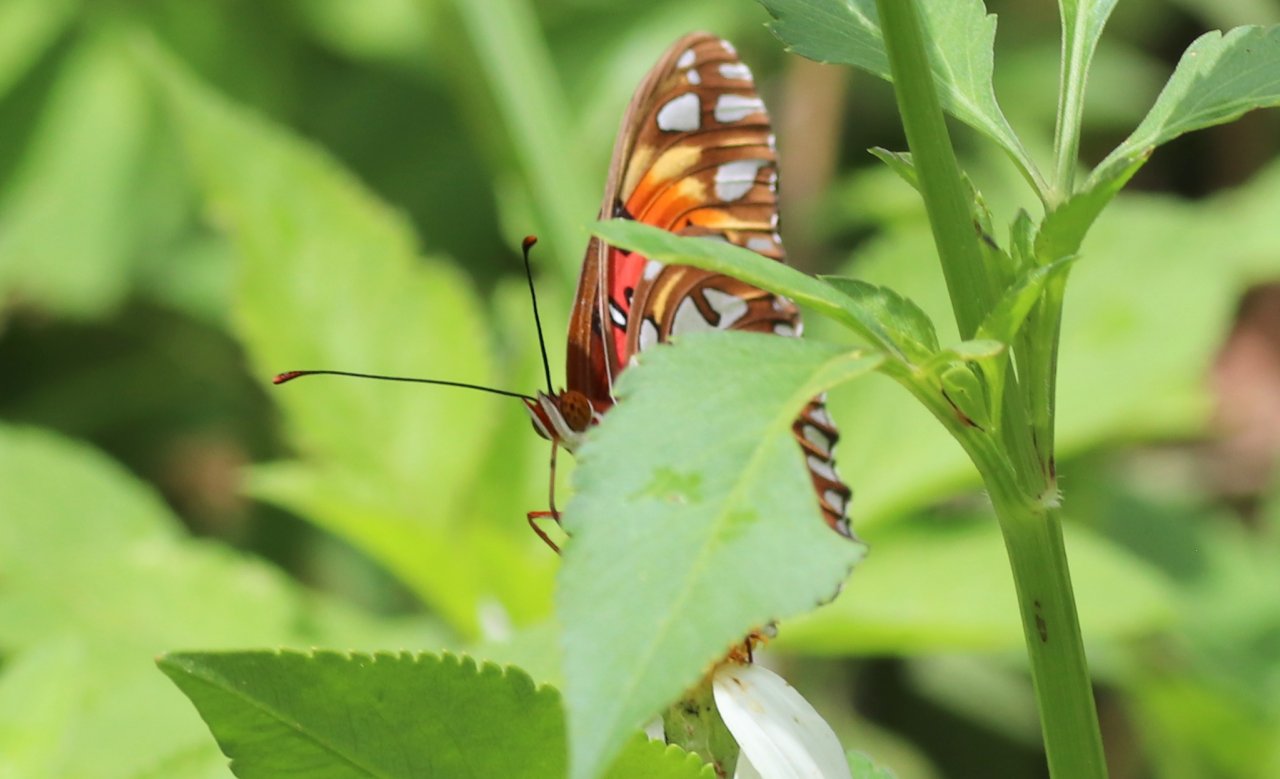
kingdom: Animalia
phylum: Arthropoda
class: Insecta
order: Lepidoptera
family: Nymphalidae
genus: Dione
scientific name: Dione vanillae
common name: Gulf Fritillary
